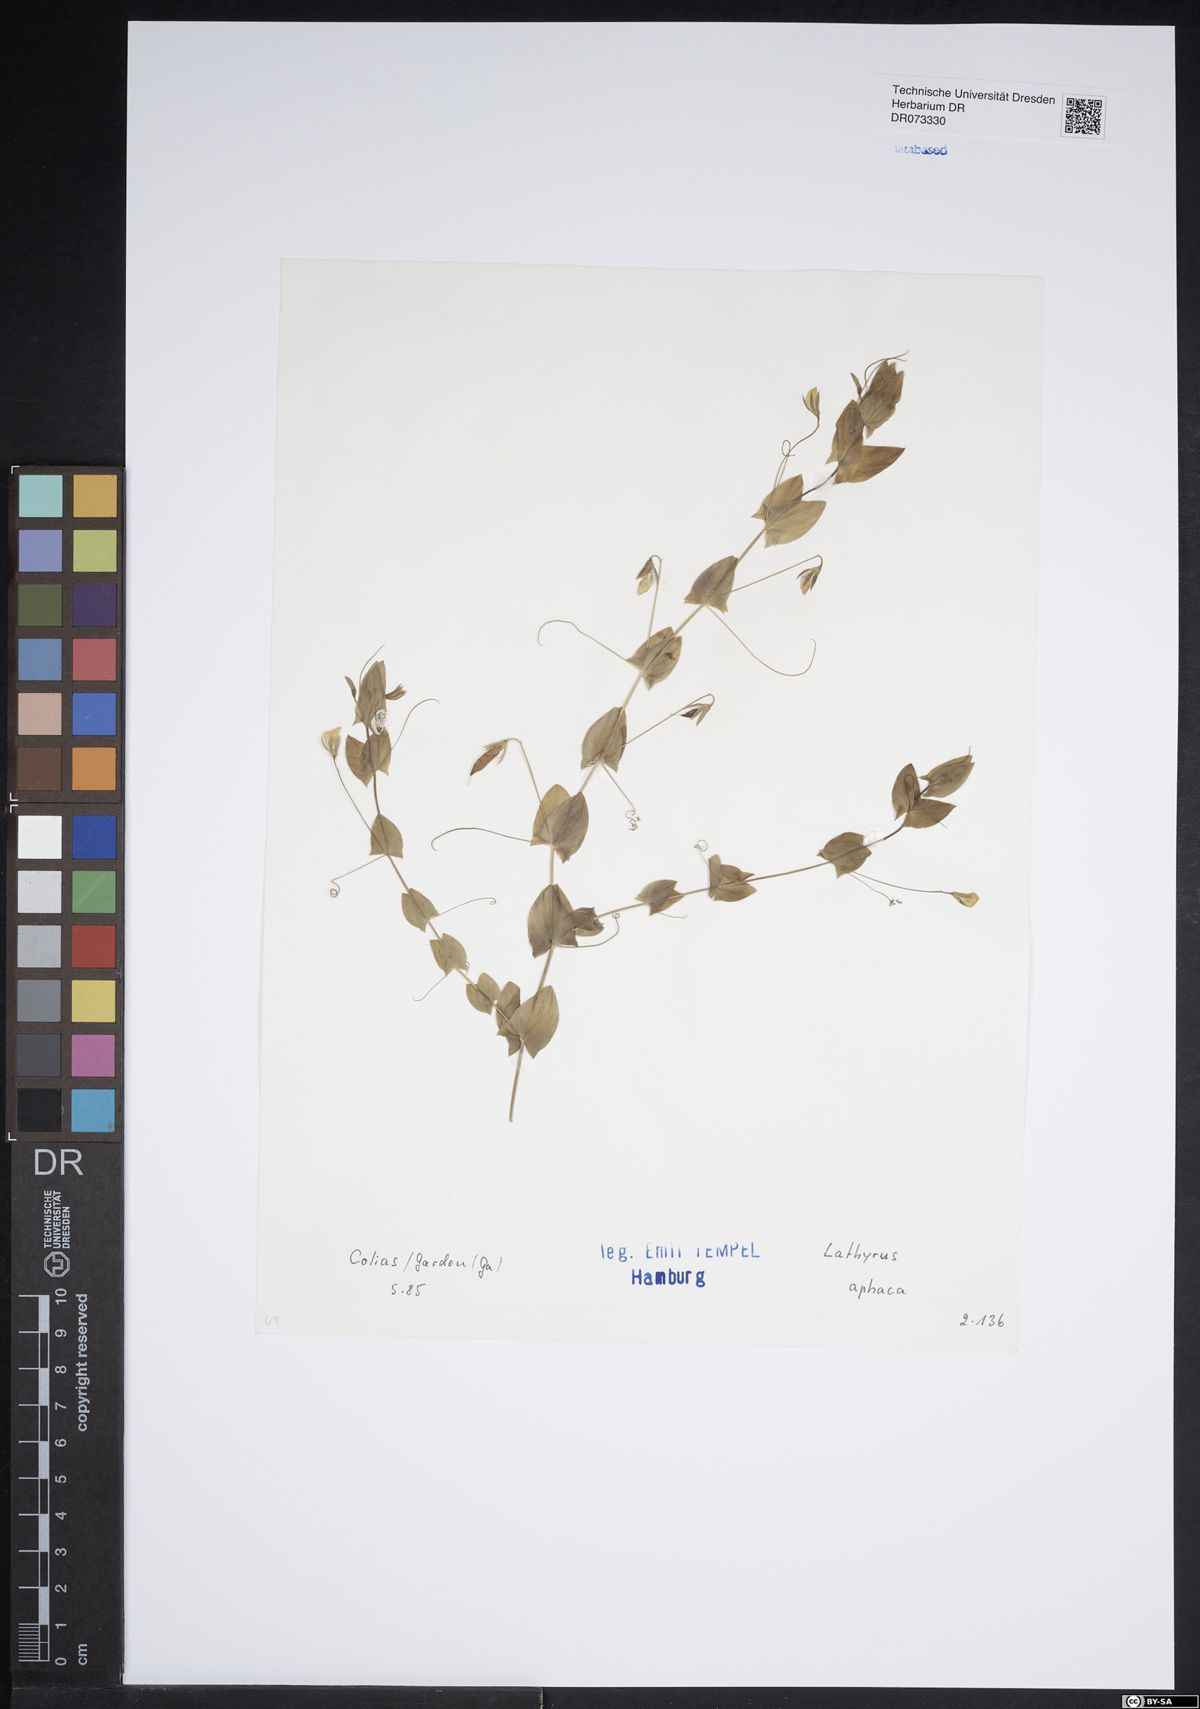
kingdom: Plantae
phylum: Tracheophyta
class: Magnoliopsida
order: Fabales
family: Fabaceae
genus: Lathyrus
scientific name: Lathyrus aphaca
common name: Yellow vetchling
